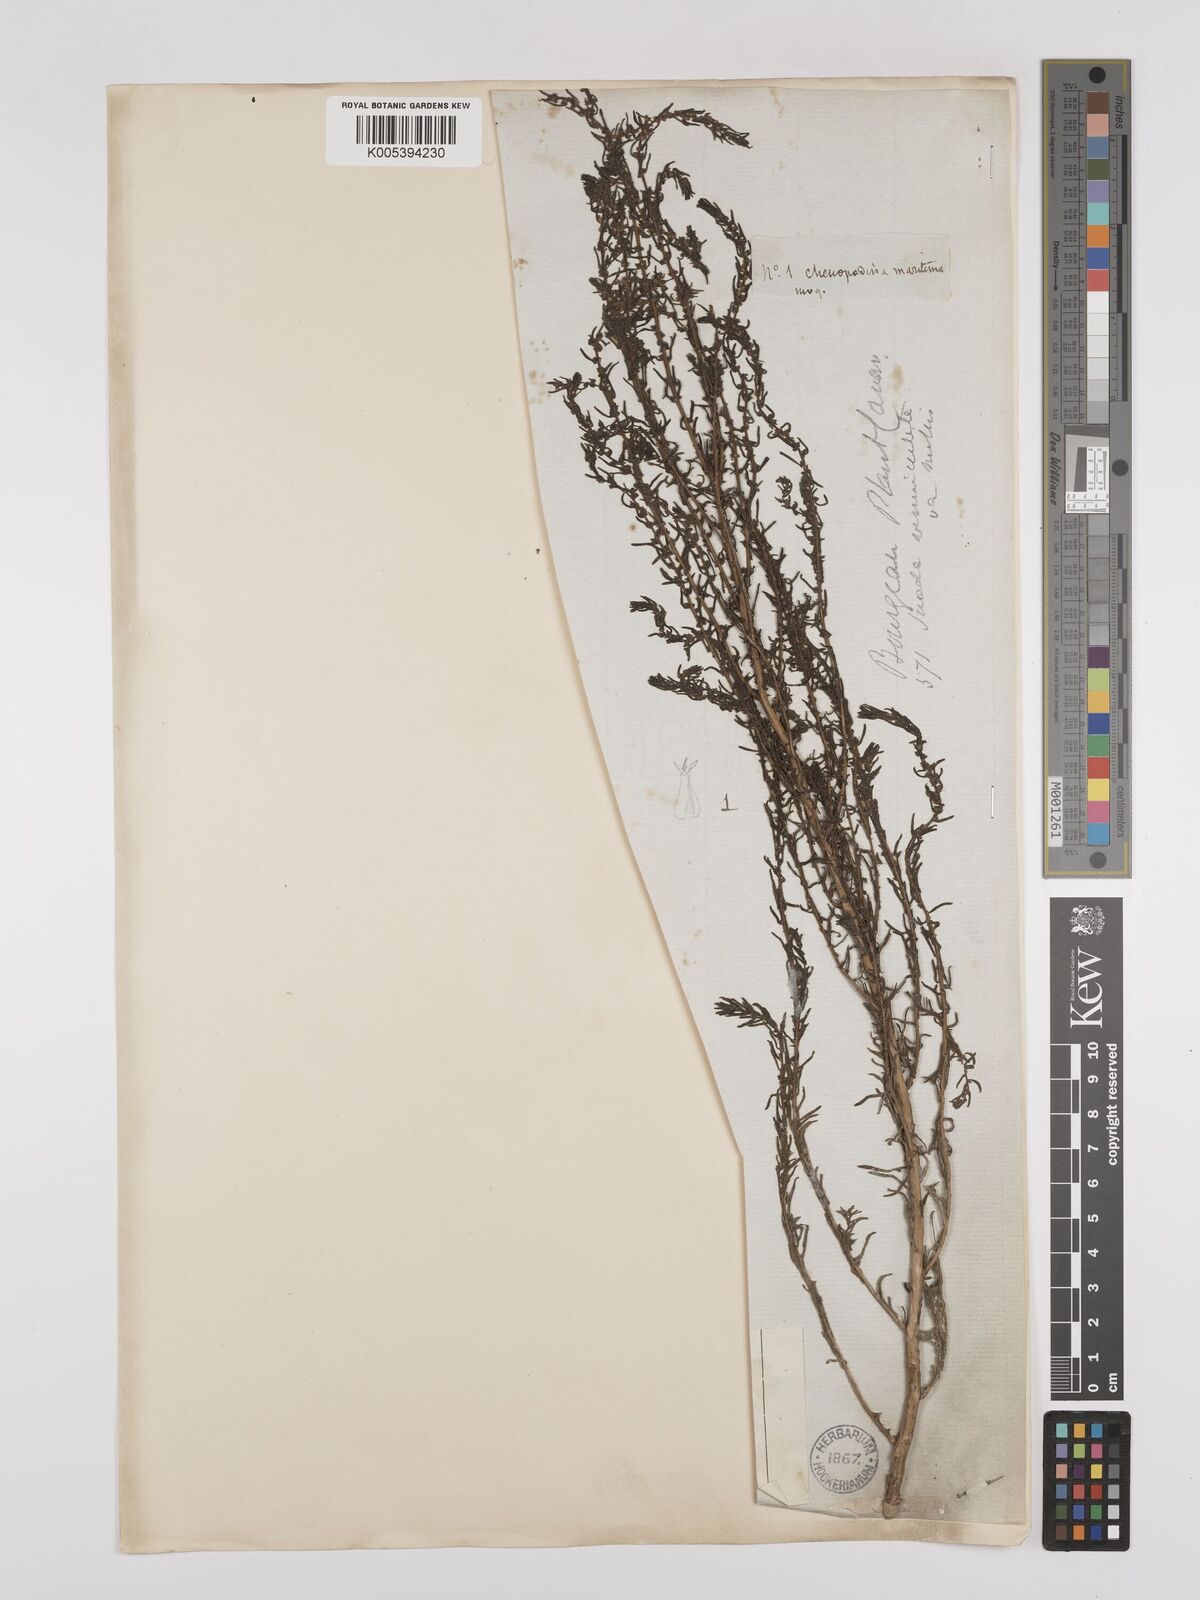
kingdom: Plantae
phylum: Tracheophyta
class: Magnoliopsida
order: Caryophyllales
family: Amaranthaceae
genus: Suaeda
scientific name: Suaeda
